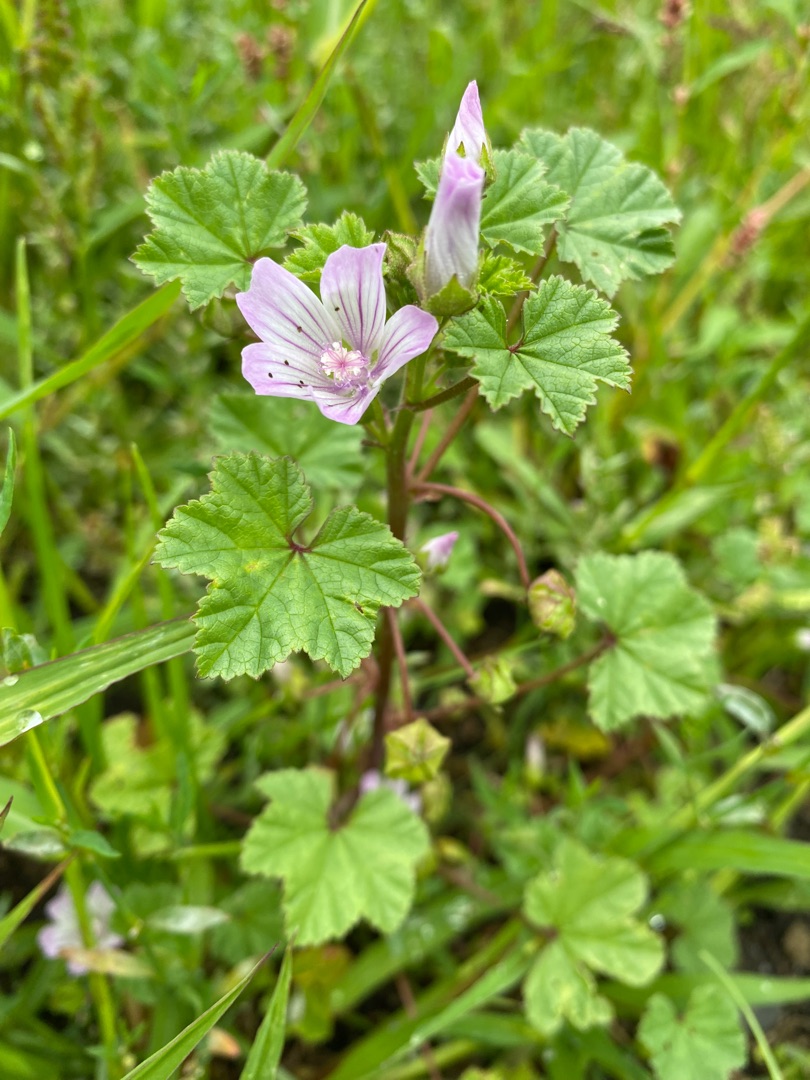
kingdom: Plantae
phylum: Tracheophyta
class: Magnoliopsida
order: Malvales
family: Malvaceae
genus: Malva
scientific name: Malva neglecta
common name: Rundbladet katost
